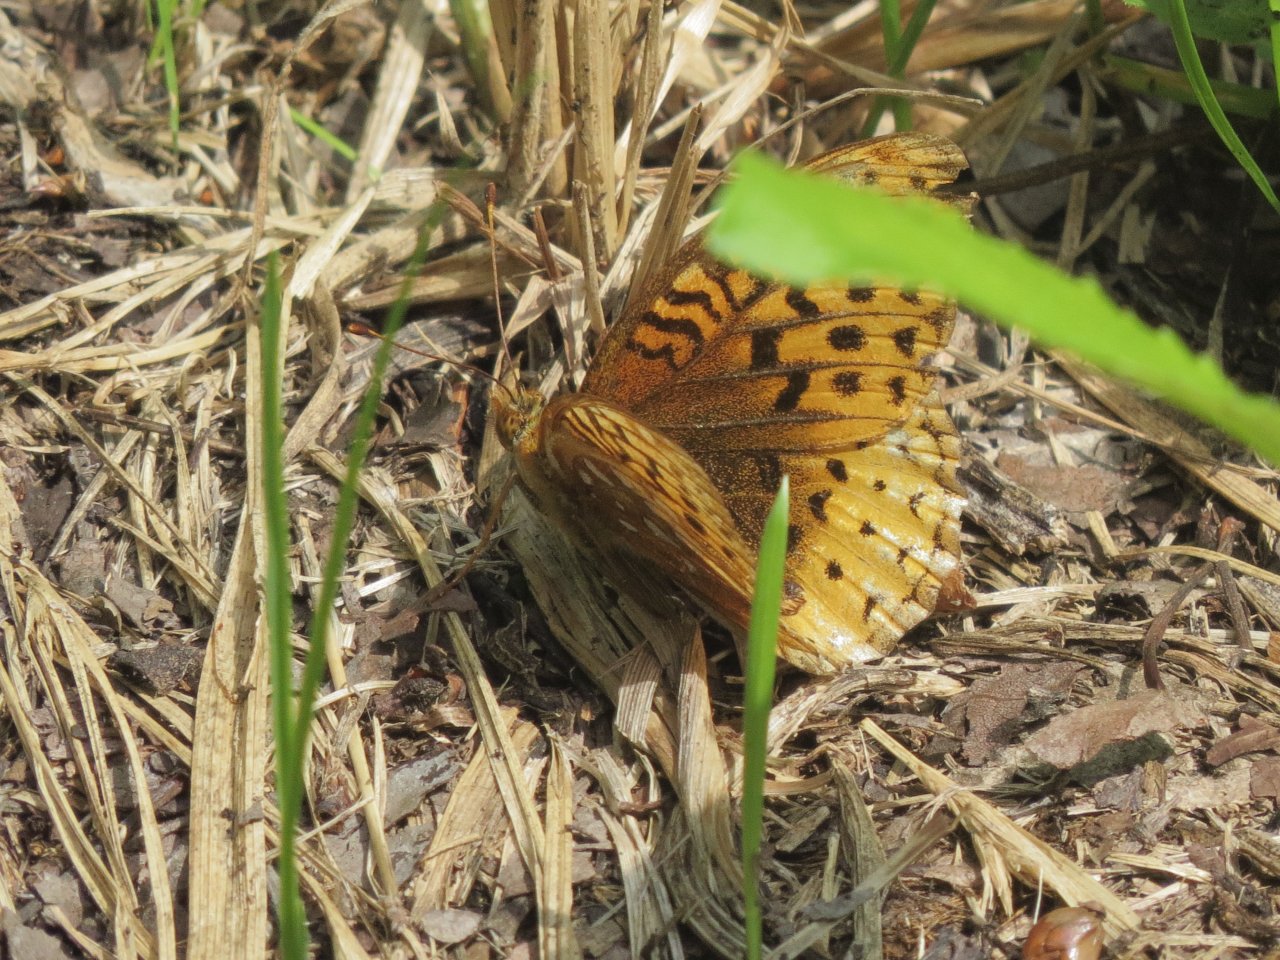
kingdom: Animalia
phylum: Arthropoda
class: Insecta
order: Lepidoptera
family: Nymphalidae
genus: Speyeria
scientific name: Speyeria cybele
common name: Great Spangled Fritillary
